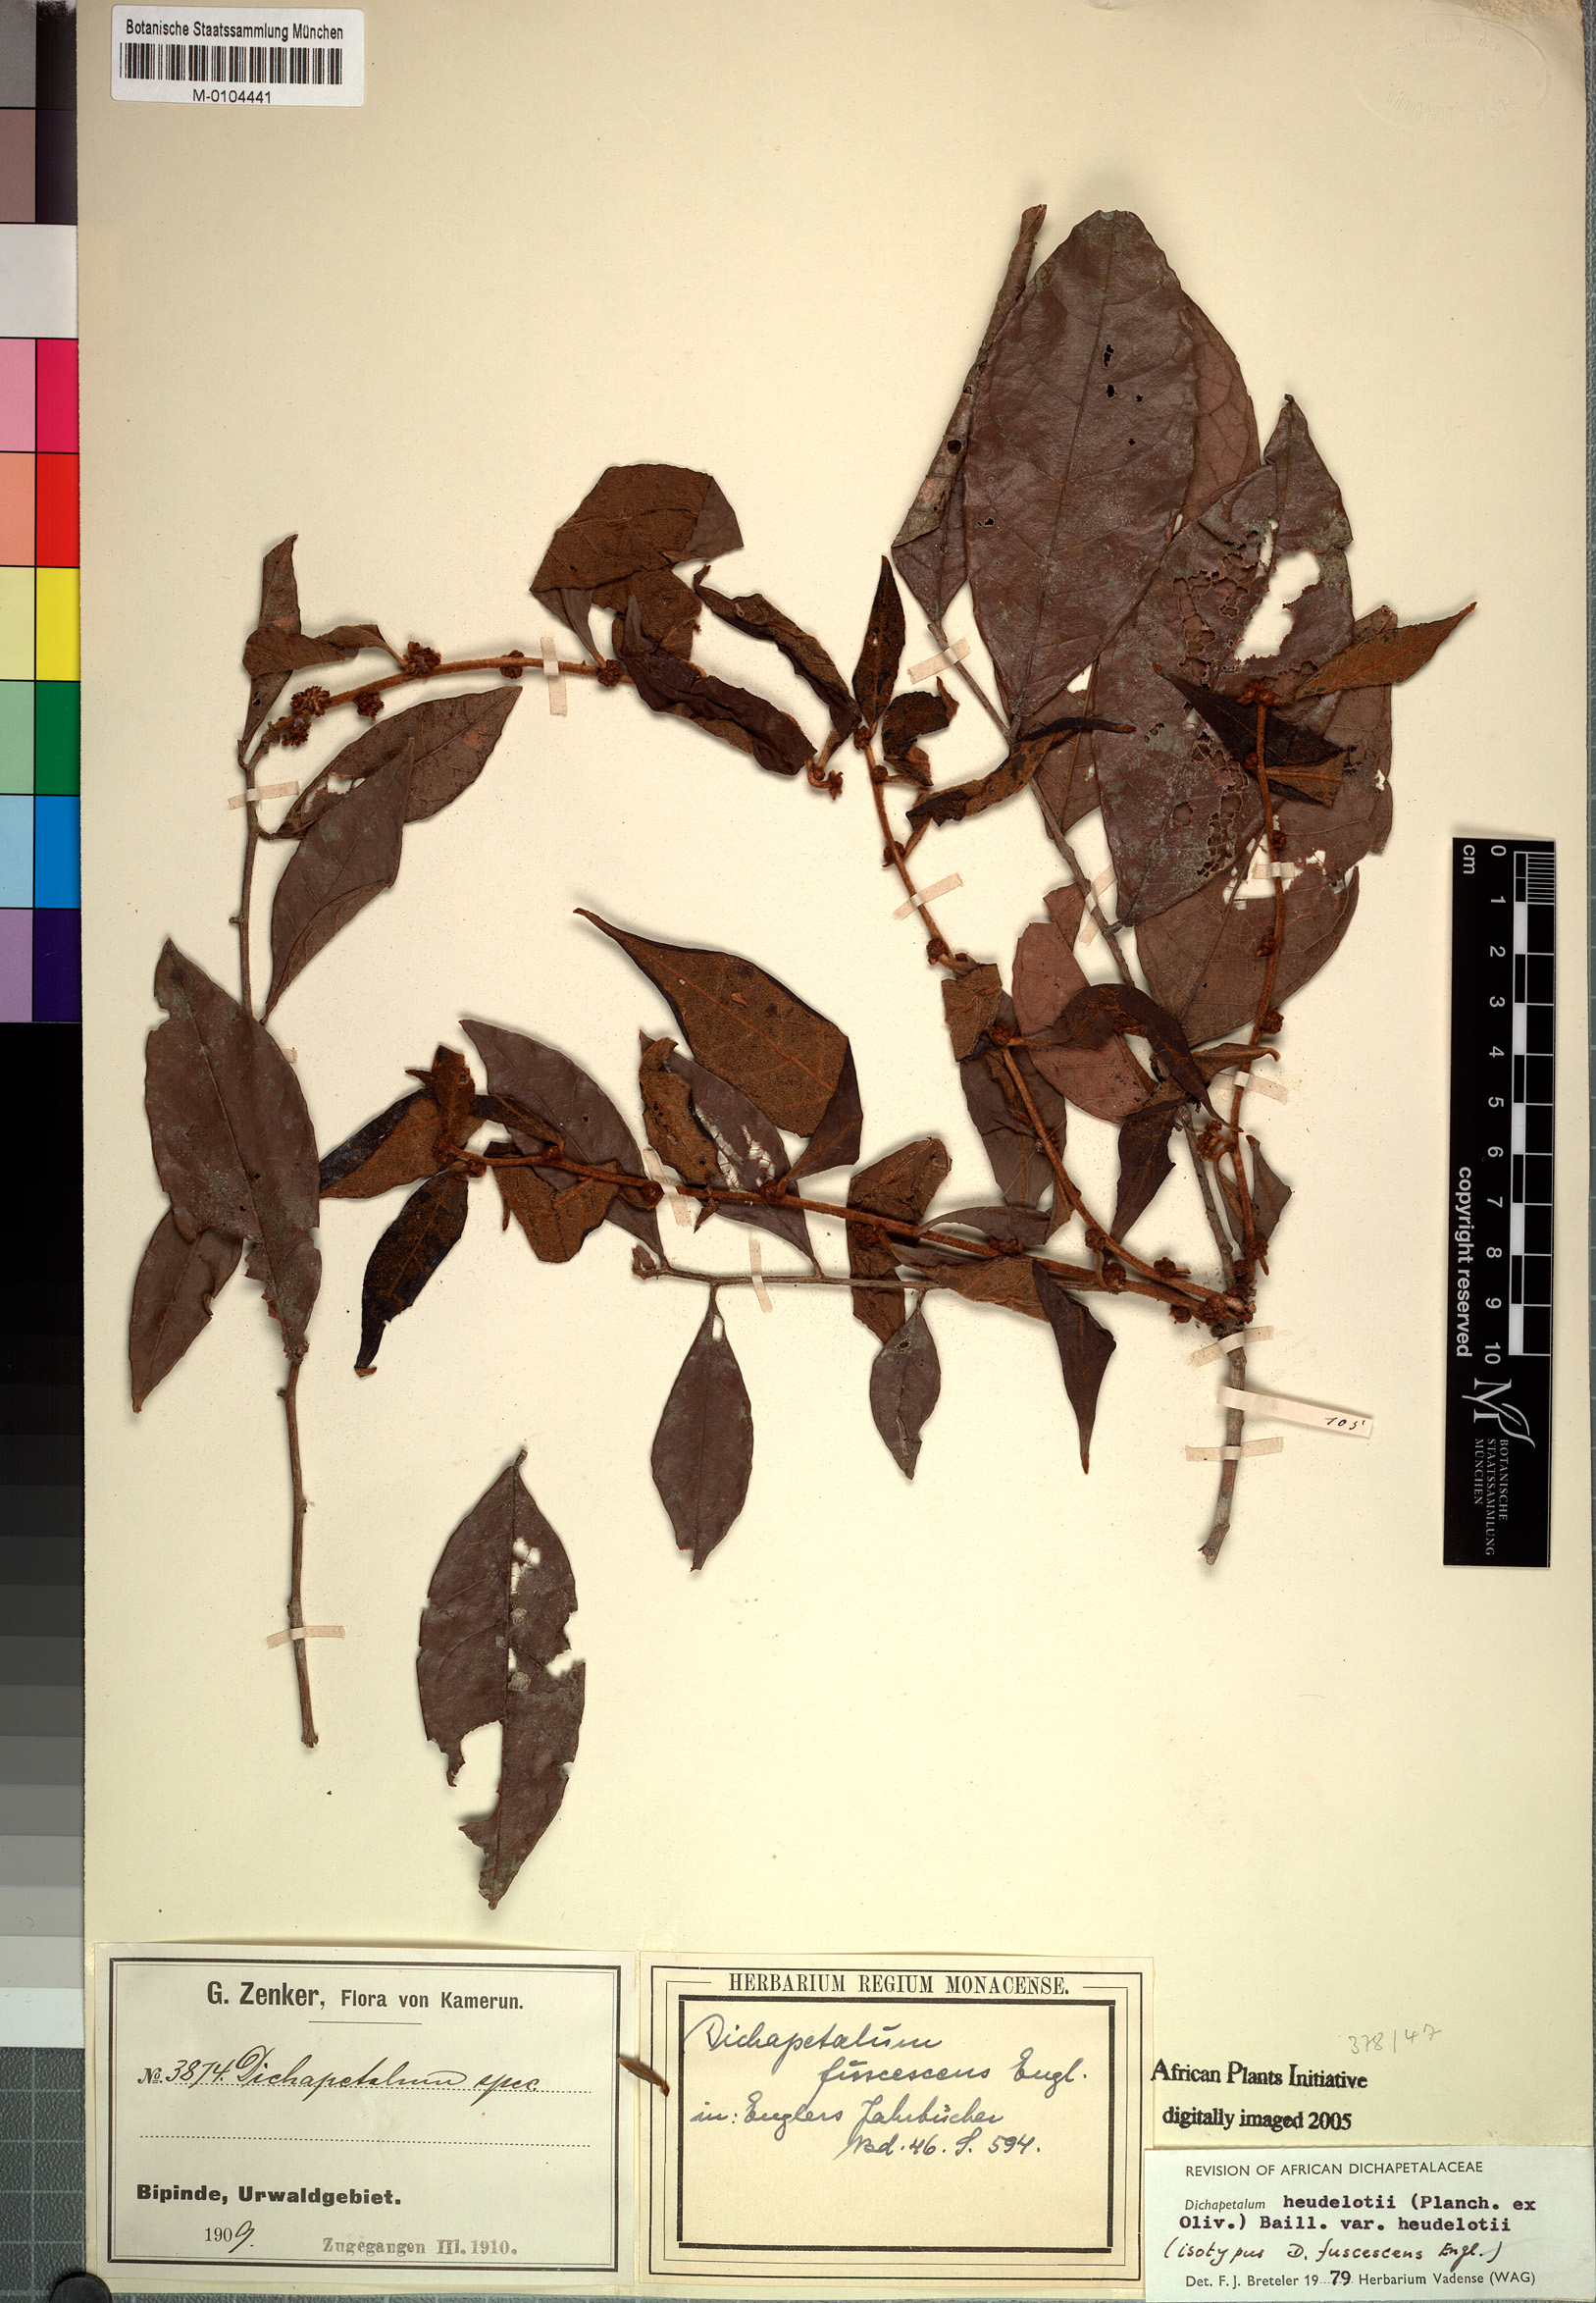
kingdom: Plantae
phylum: Tracheophyta
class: Magnoliopsida
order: Malpighiales
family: Dichapetalaceae
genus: Dichapetalum
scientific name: Dichapetalum heudelotii
